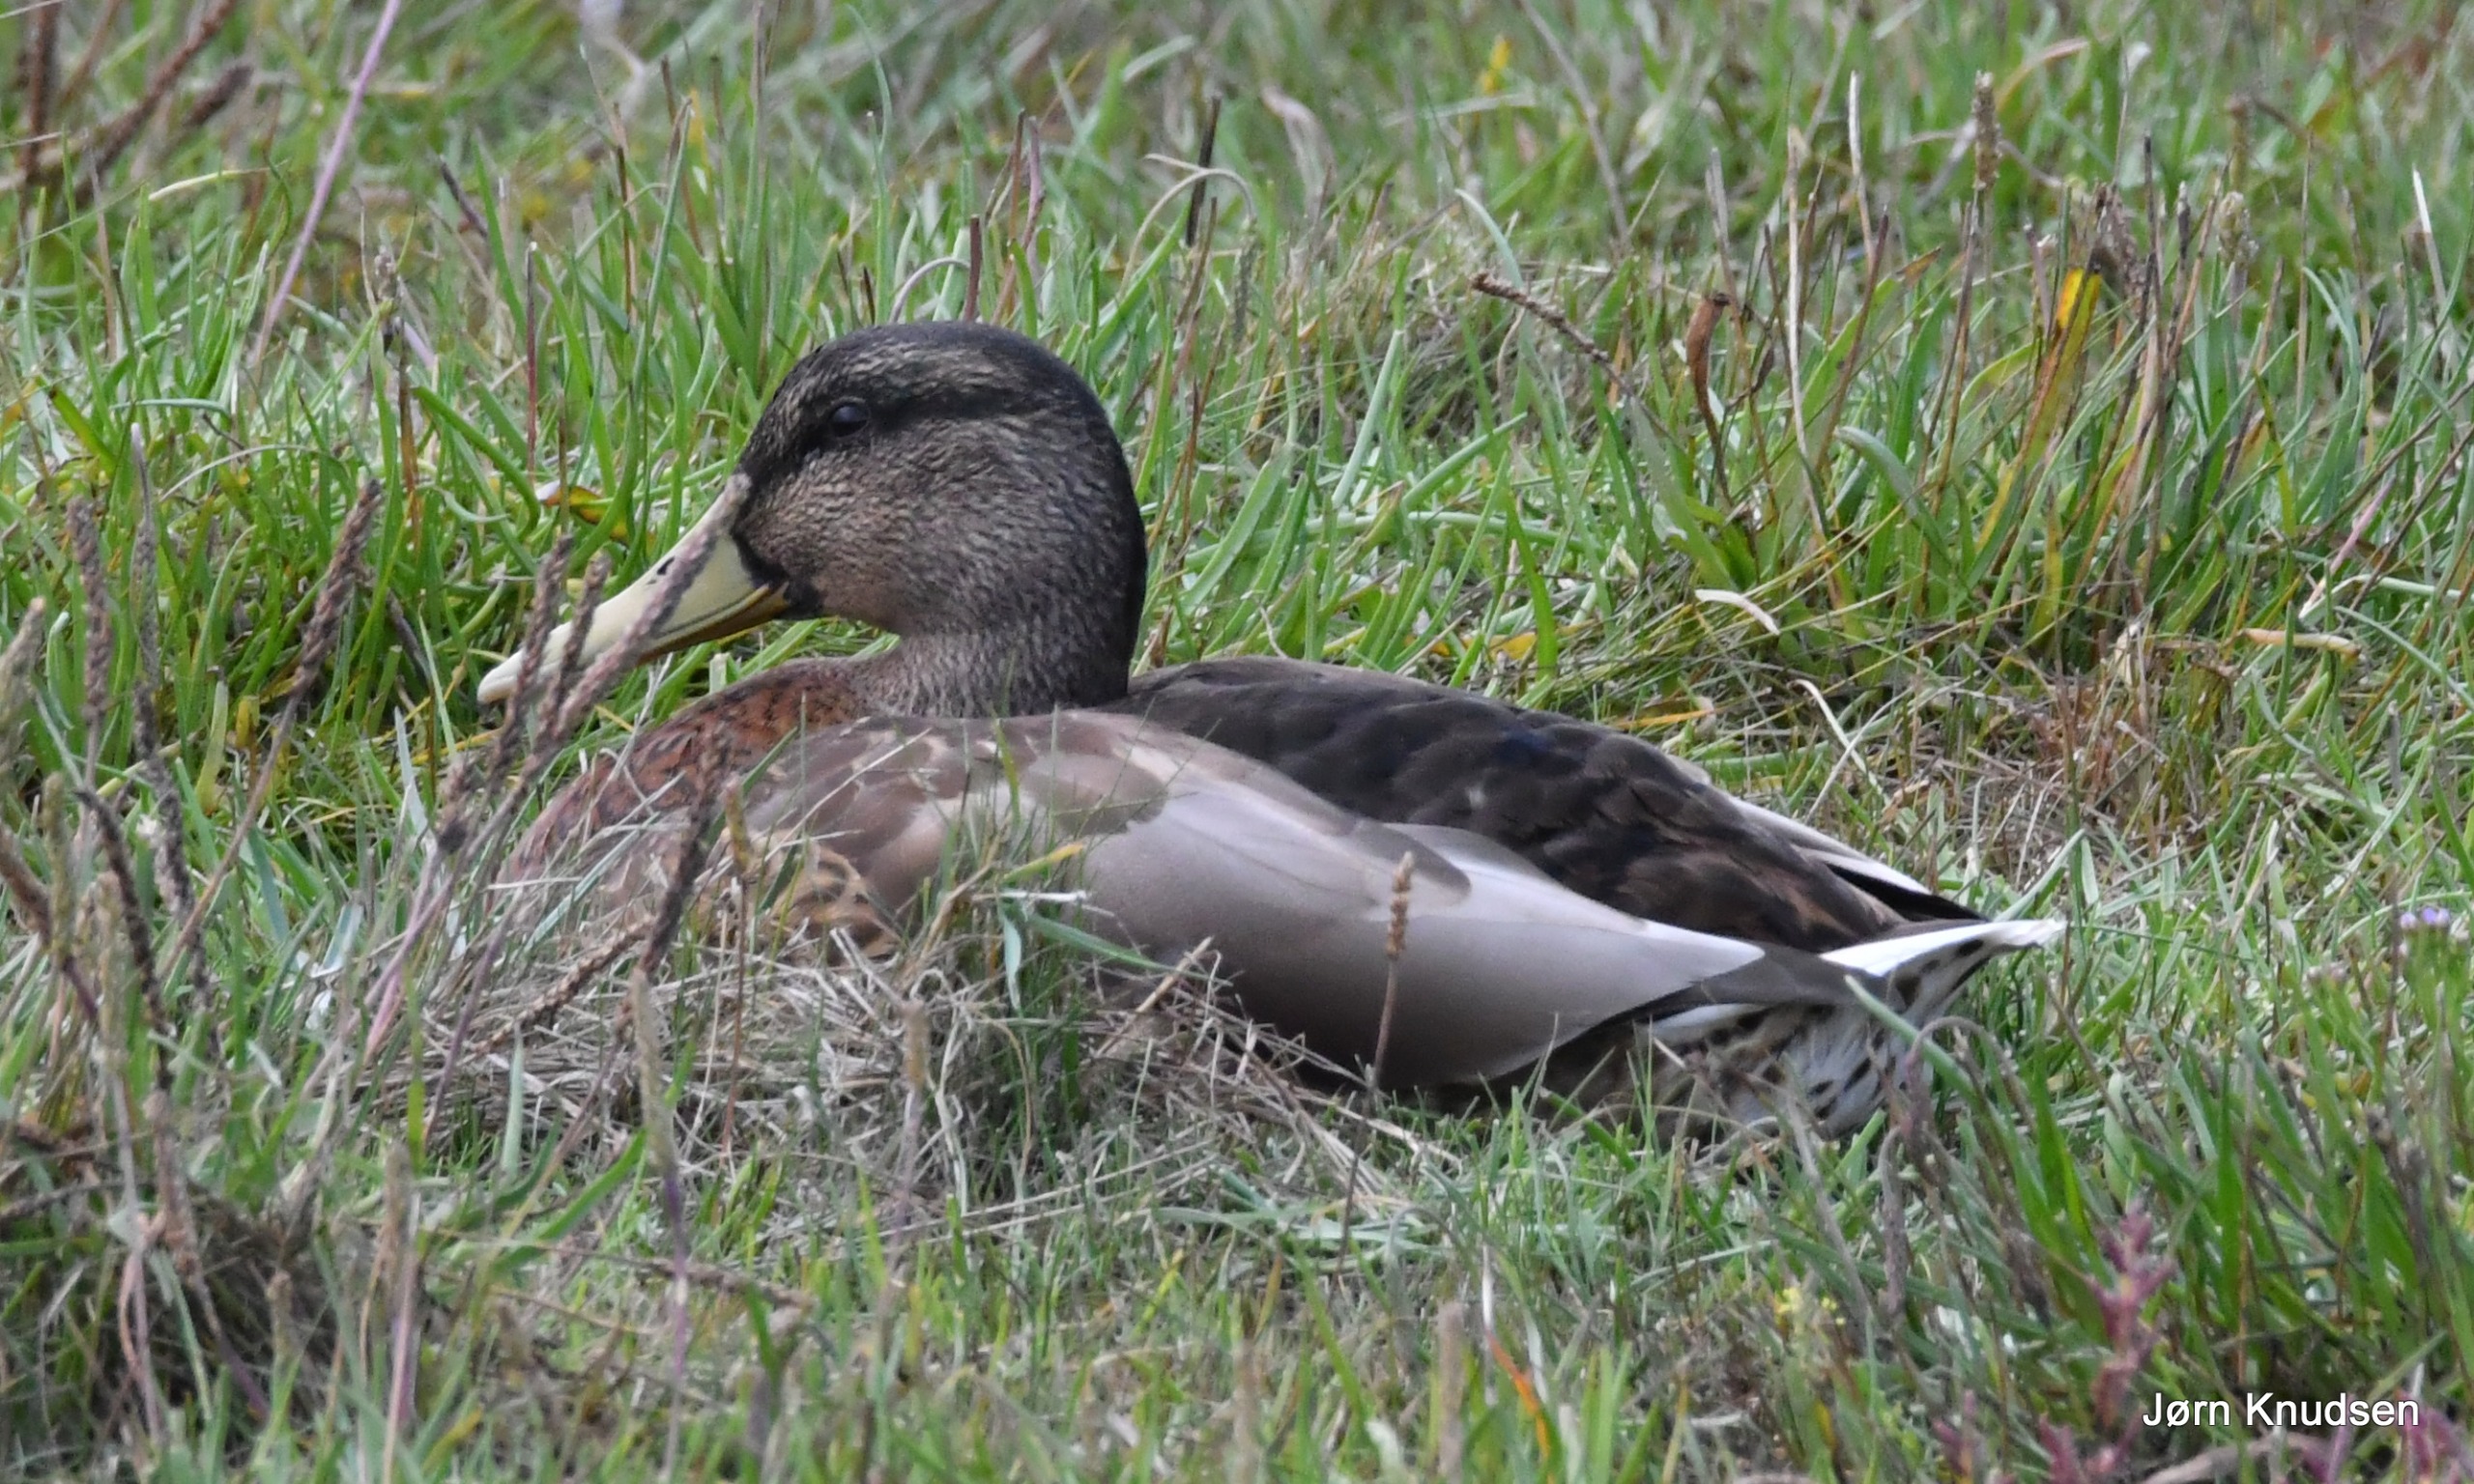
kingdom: Animalia
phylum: Chordata
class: Aves
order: Anseriformes
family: Anatidae
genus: Anas
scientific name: Anas platyrhynchos
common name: Gråand
